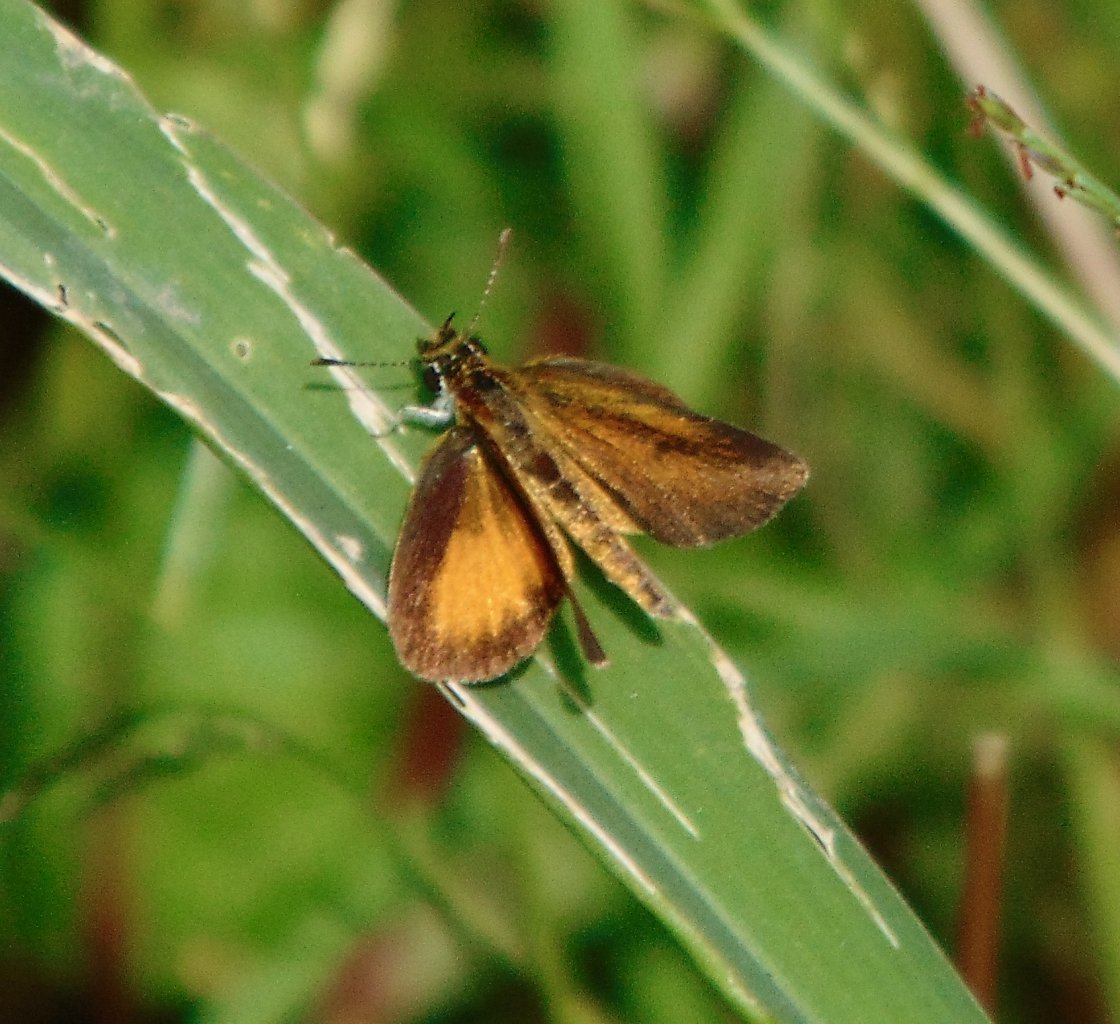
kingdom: Animalia
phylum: Arthropoda
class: Insecta
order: Lepidoptera
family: Hesperiidae
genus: Ancyloxypha
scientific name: Ancyloxypha numitor
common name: Least Skipper
